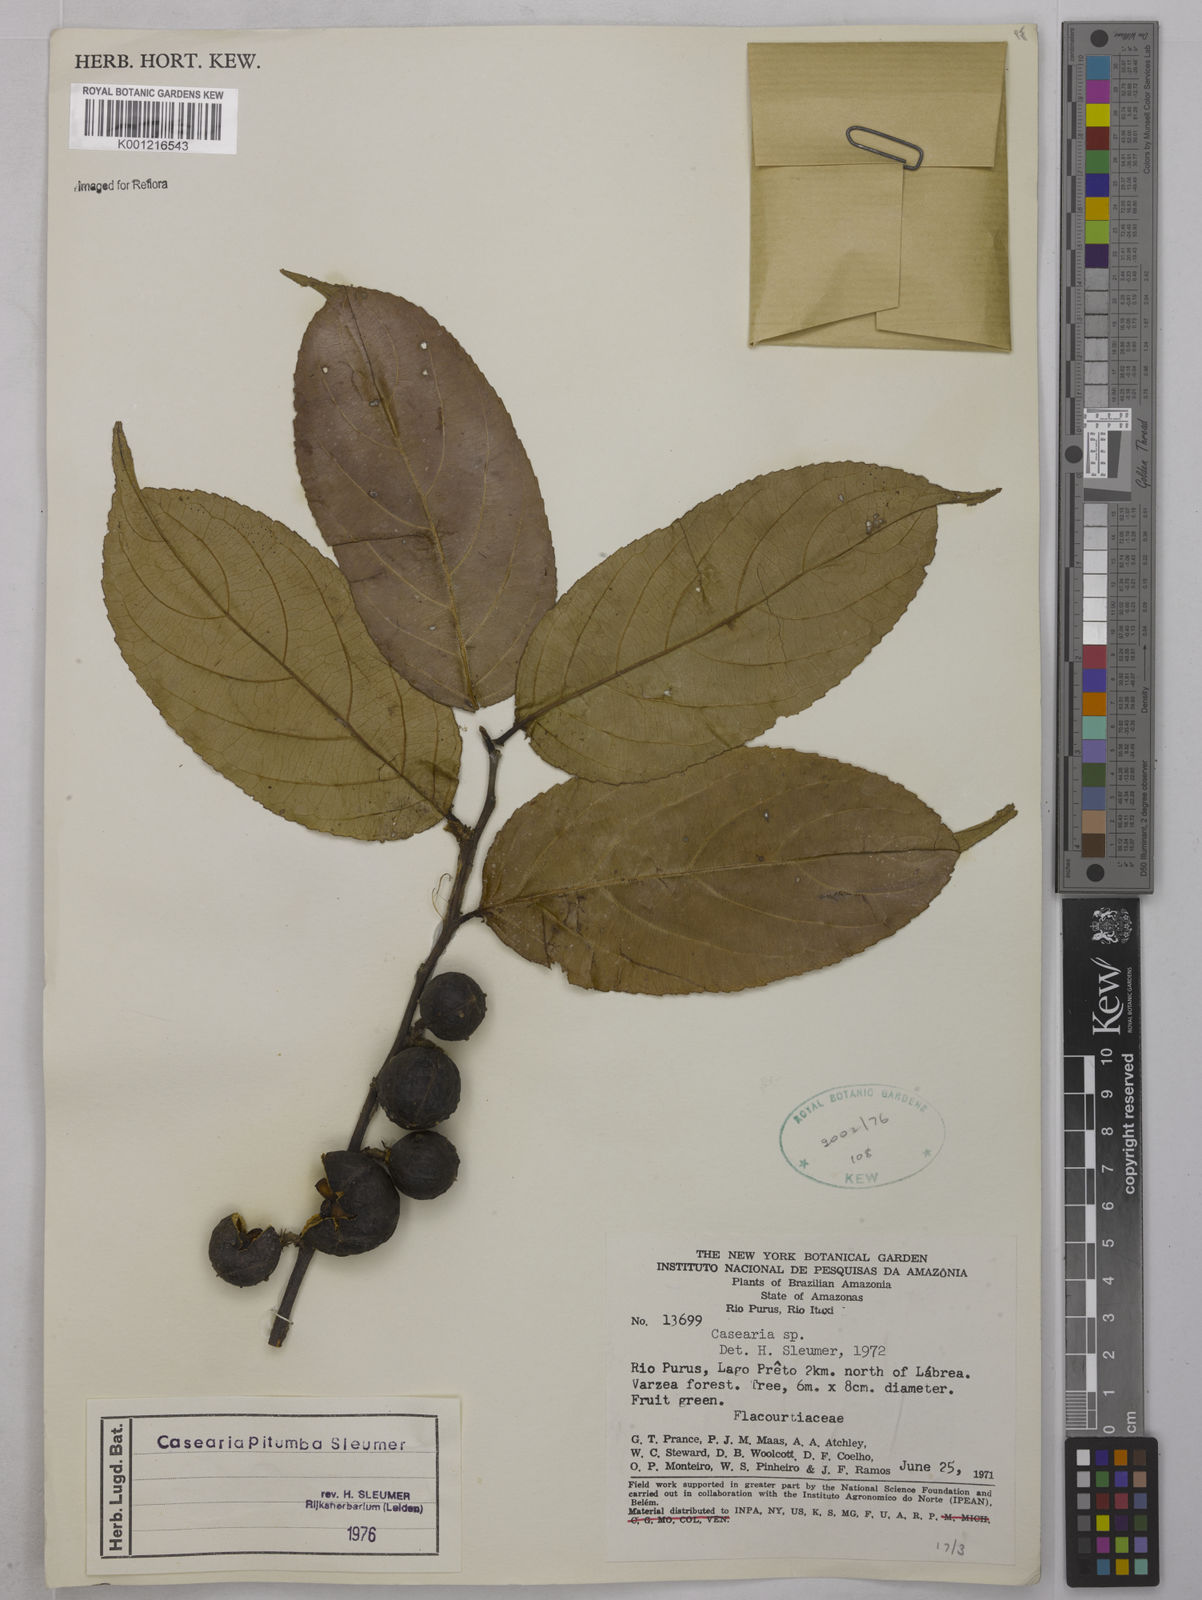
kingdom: Plantae
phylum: Tracheophyta
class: Magnoliopsida
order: Malpighiales
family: Salicaceae
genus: Casearia
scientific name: Casearia pitumba
